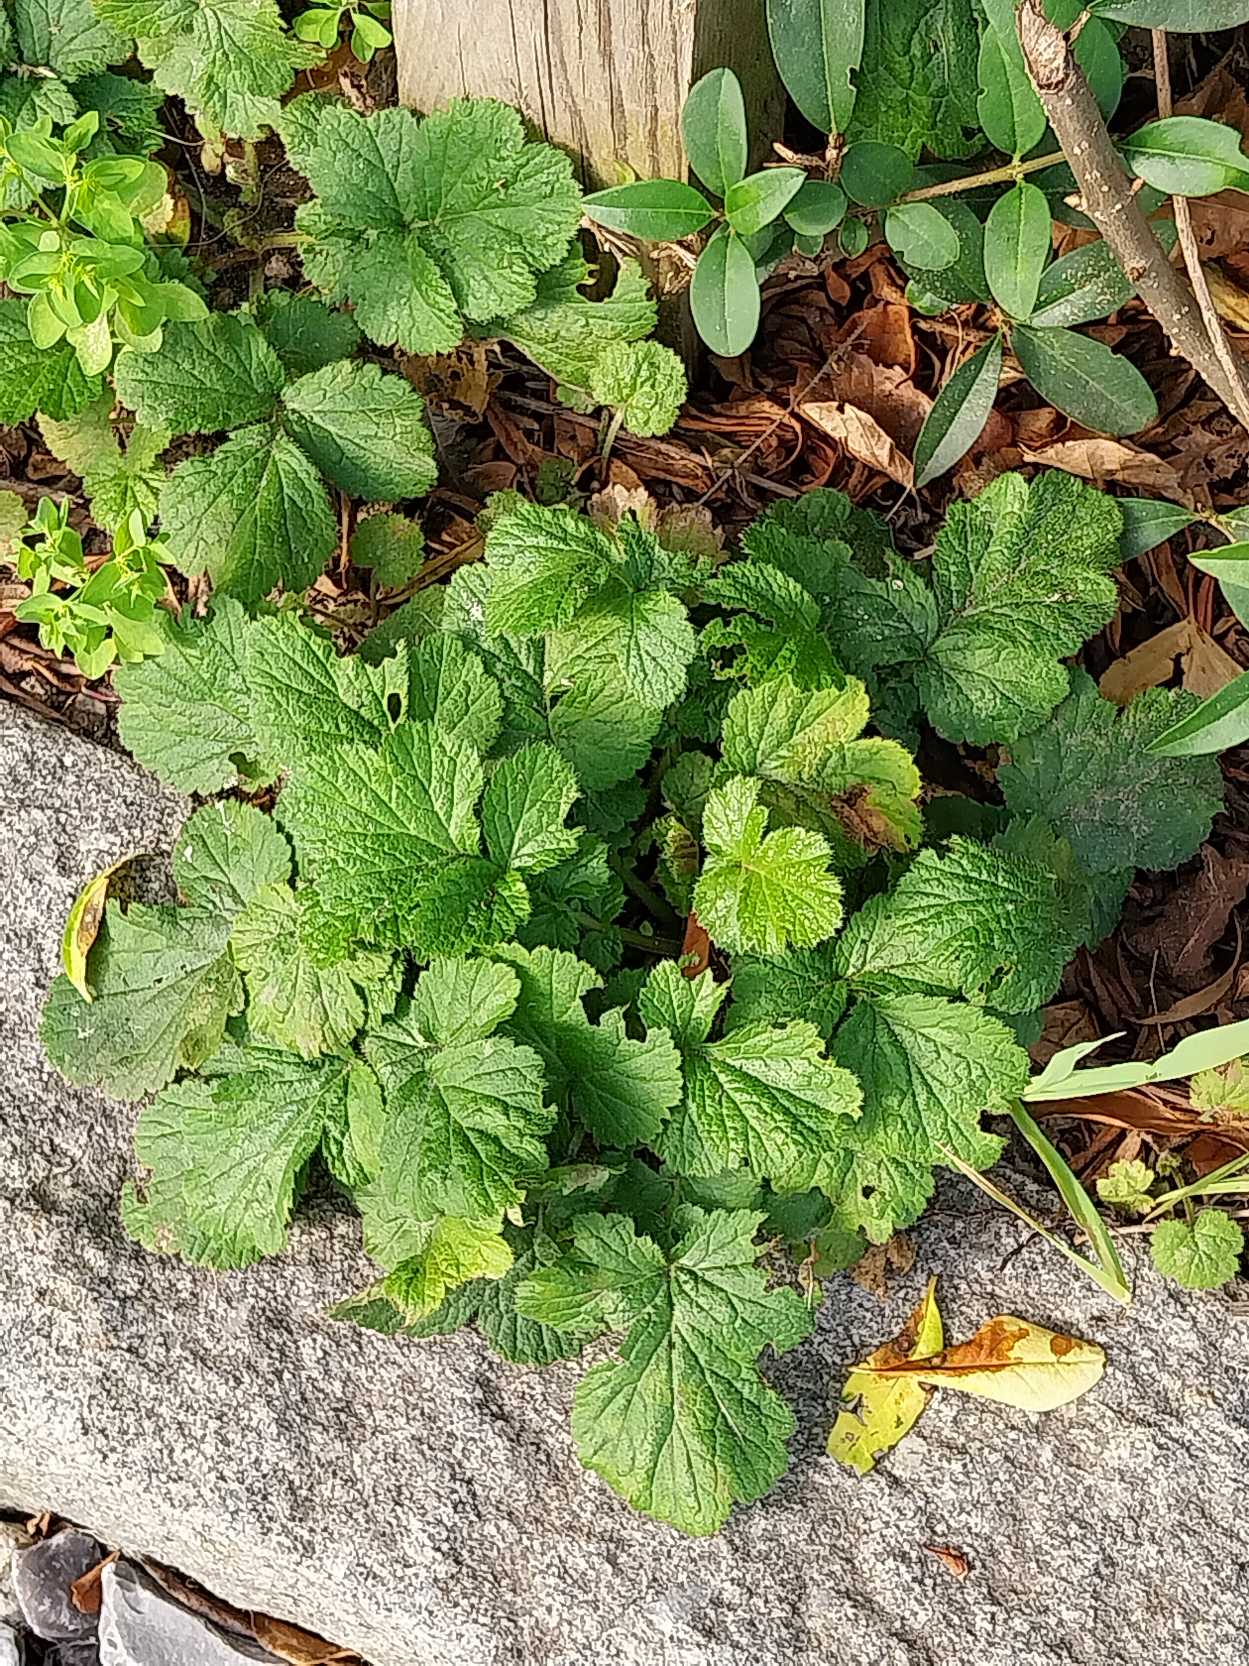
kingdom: Plantae
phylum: Tracheophyta
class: Magnoliopsida
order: Rosales
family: Rosaceae
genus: Geum
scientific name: Geum urbanum
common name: Feber-nellikerod
